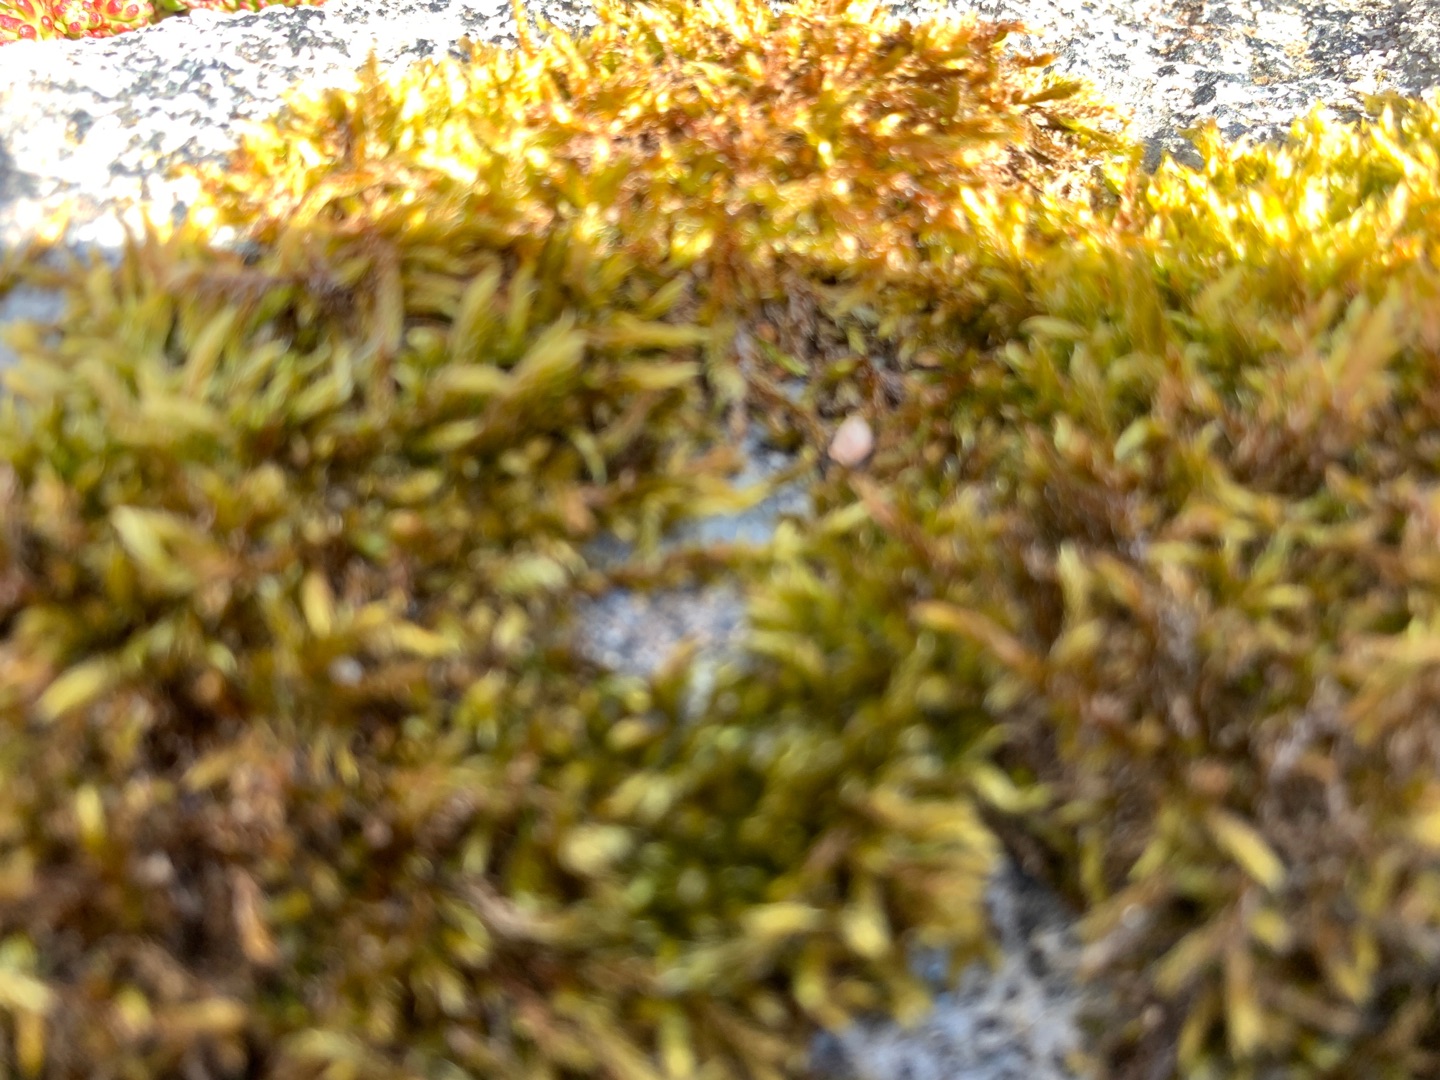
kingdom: Plantae
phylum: Bryophyta
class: Bryopsida
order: Hypnales
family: Hypnaceae
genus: Hypnum
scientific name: Hypnum cupressiforme
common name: Almindelig cypresmos
